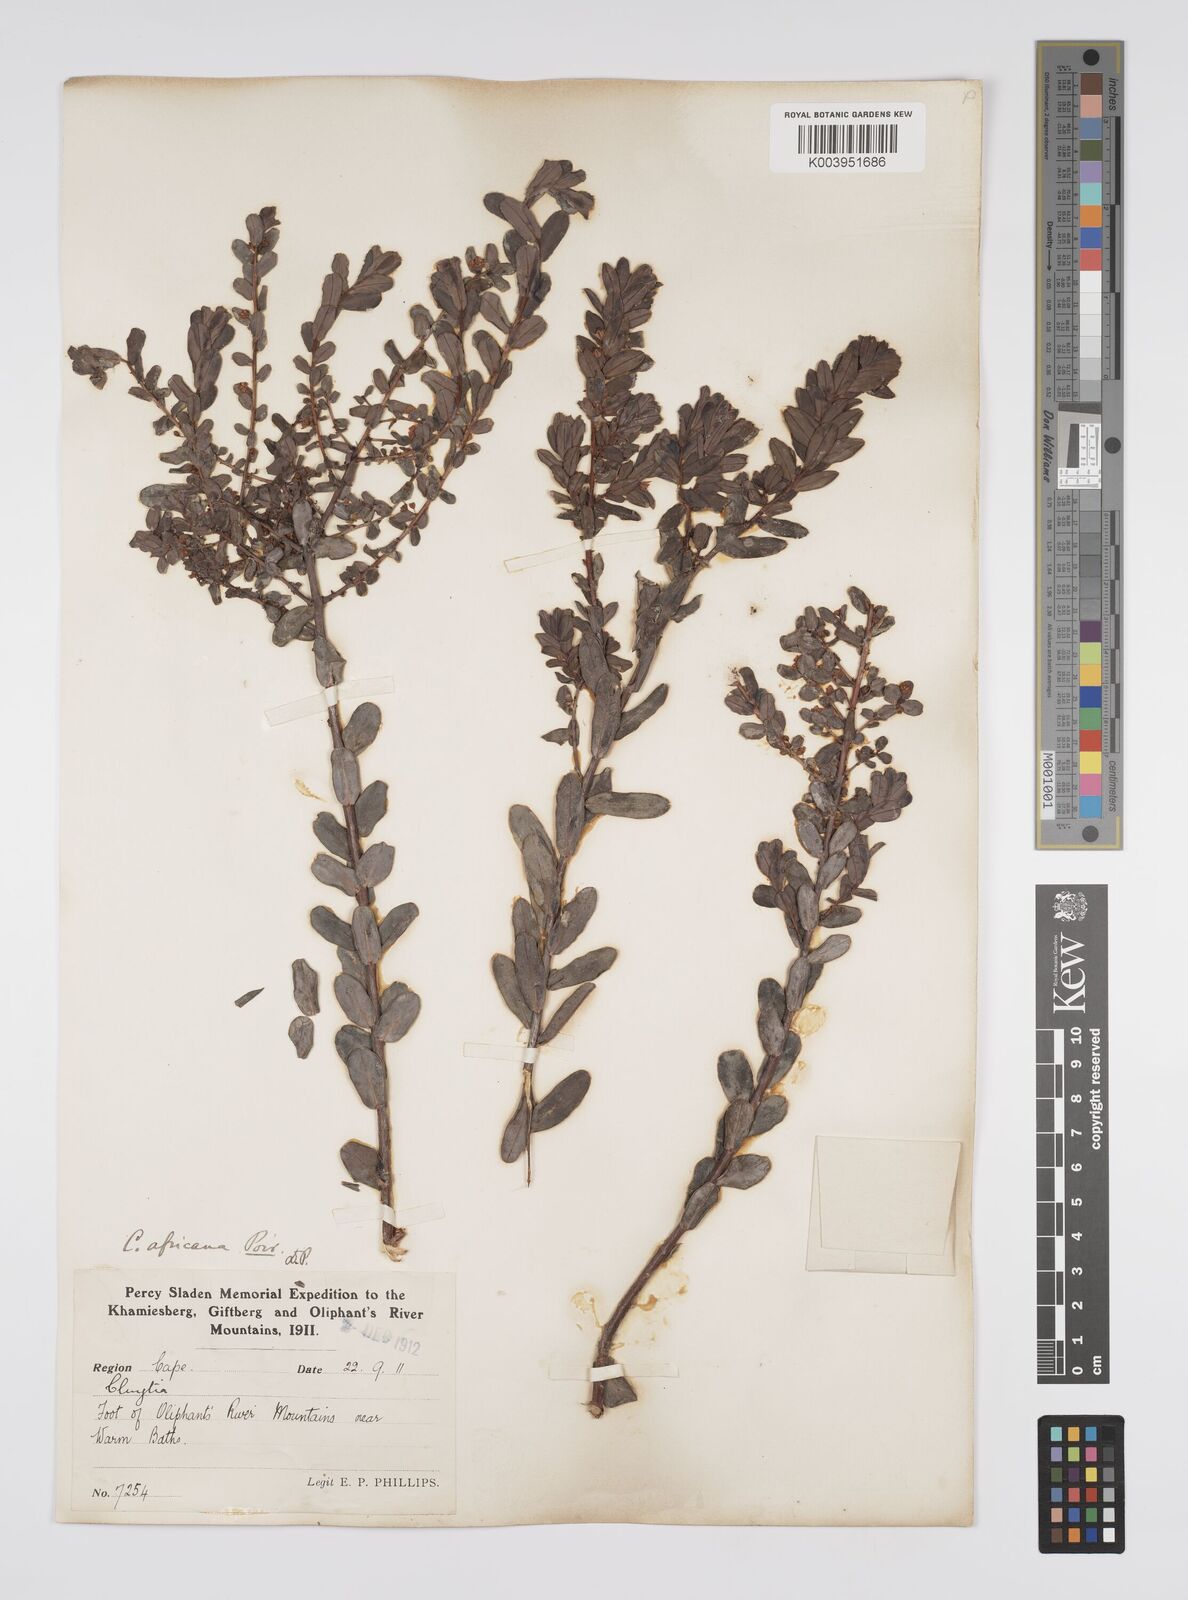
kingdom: Plantae
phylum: Tracheophyta
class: Magnoliopsida
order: Malpighiales
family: Peraceae
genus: Clutia
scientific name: Clutia africana
